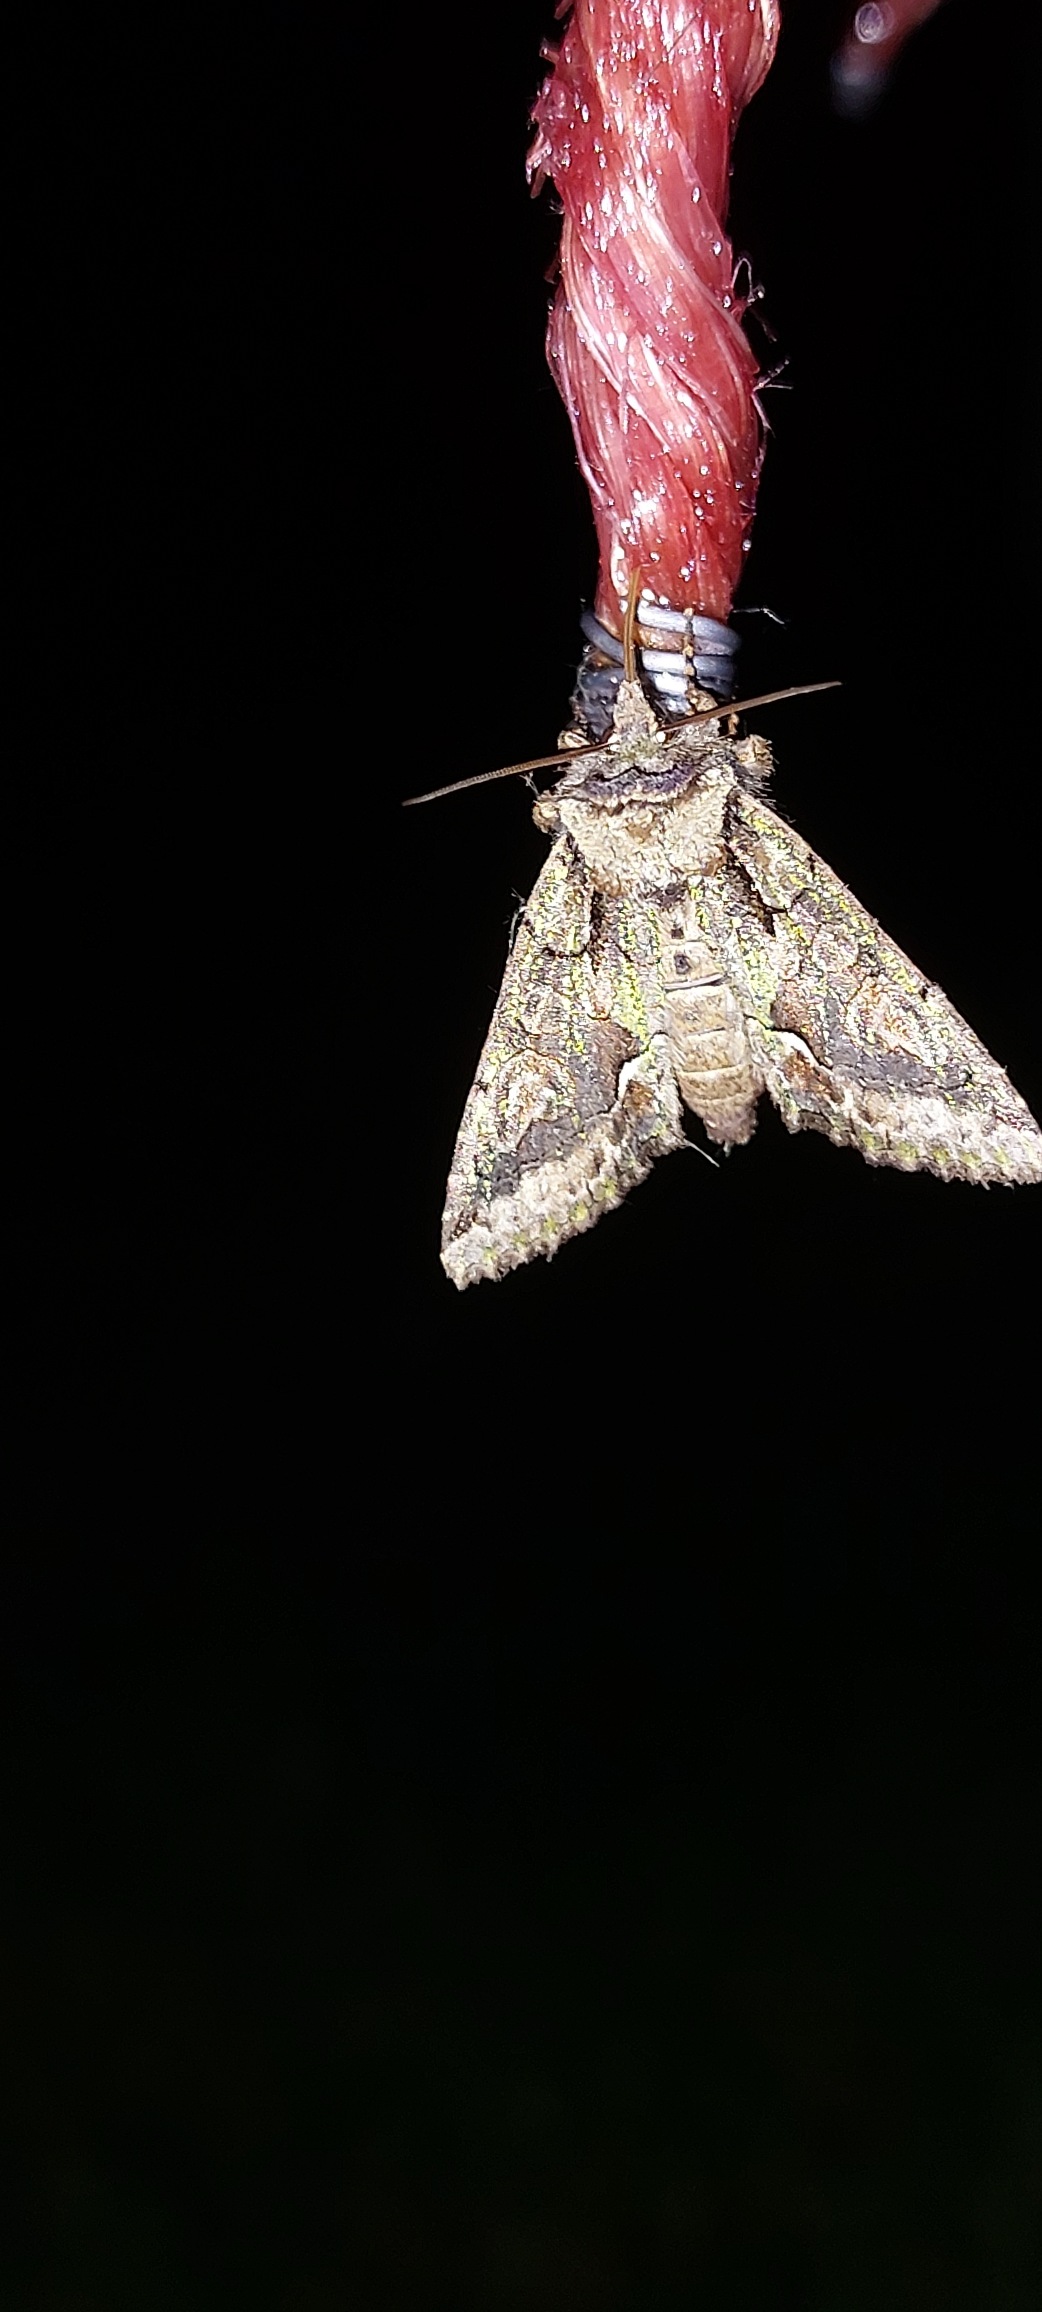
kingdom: Animalia
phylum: Arthropoda
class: Insecta
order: Lepidoptera
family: Noctuidae
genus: Allophyes
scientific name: Allophyes oxyacanthae
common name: Tjørneugle
